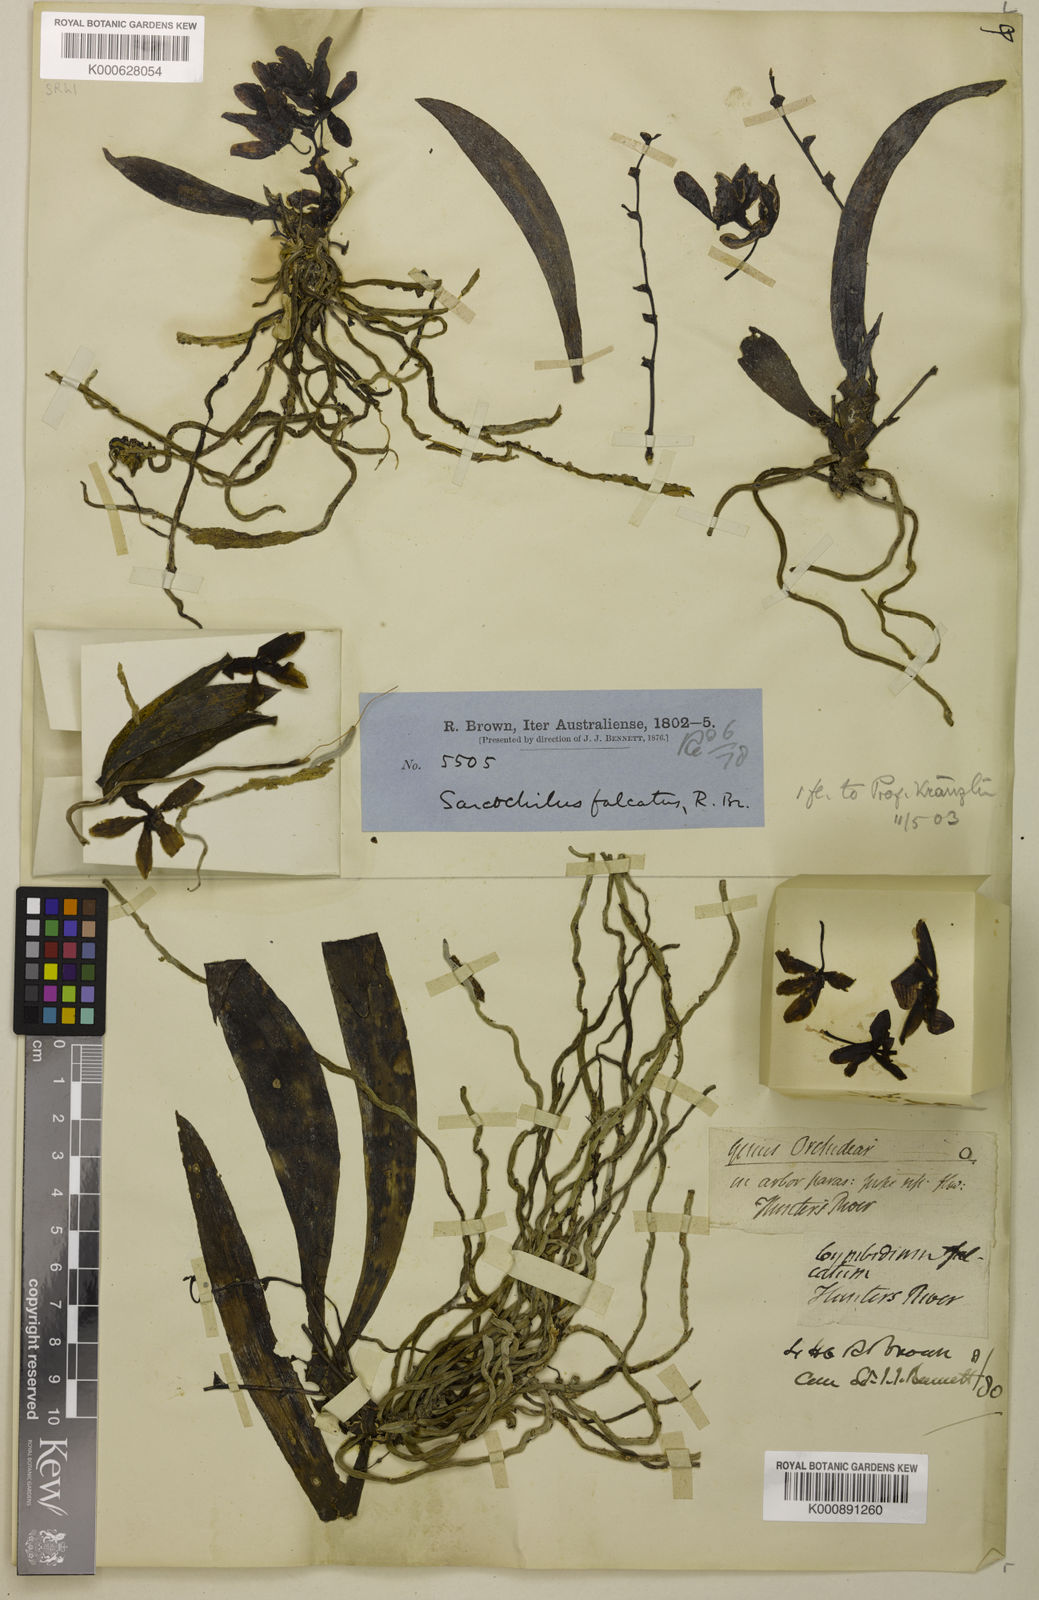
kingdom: Plantae
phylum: Tracheophyta
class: Liliopsida
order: Asparagales
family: Orchidaceae
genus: Sarcochilus
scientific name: Sarcochilus falcatus
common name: Orange blossom orchid
